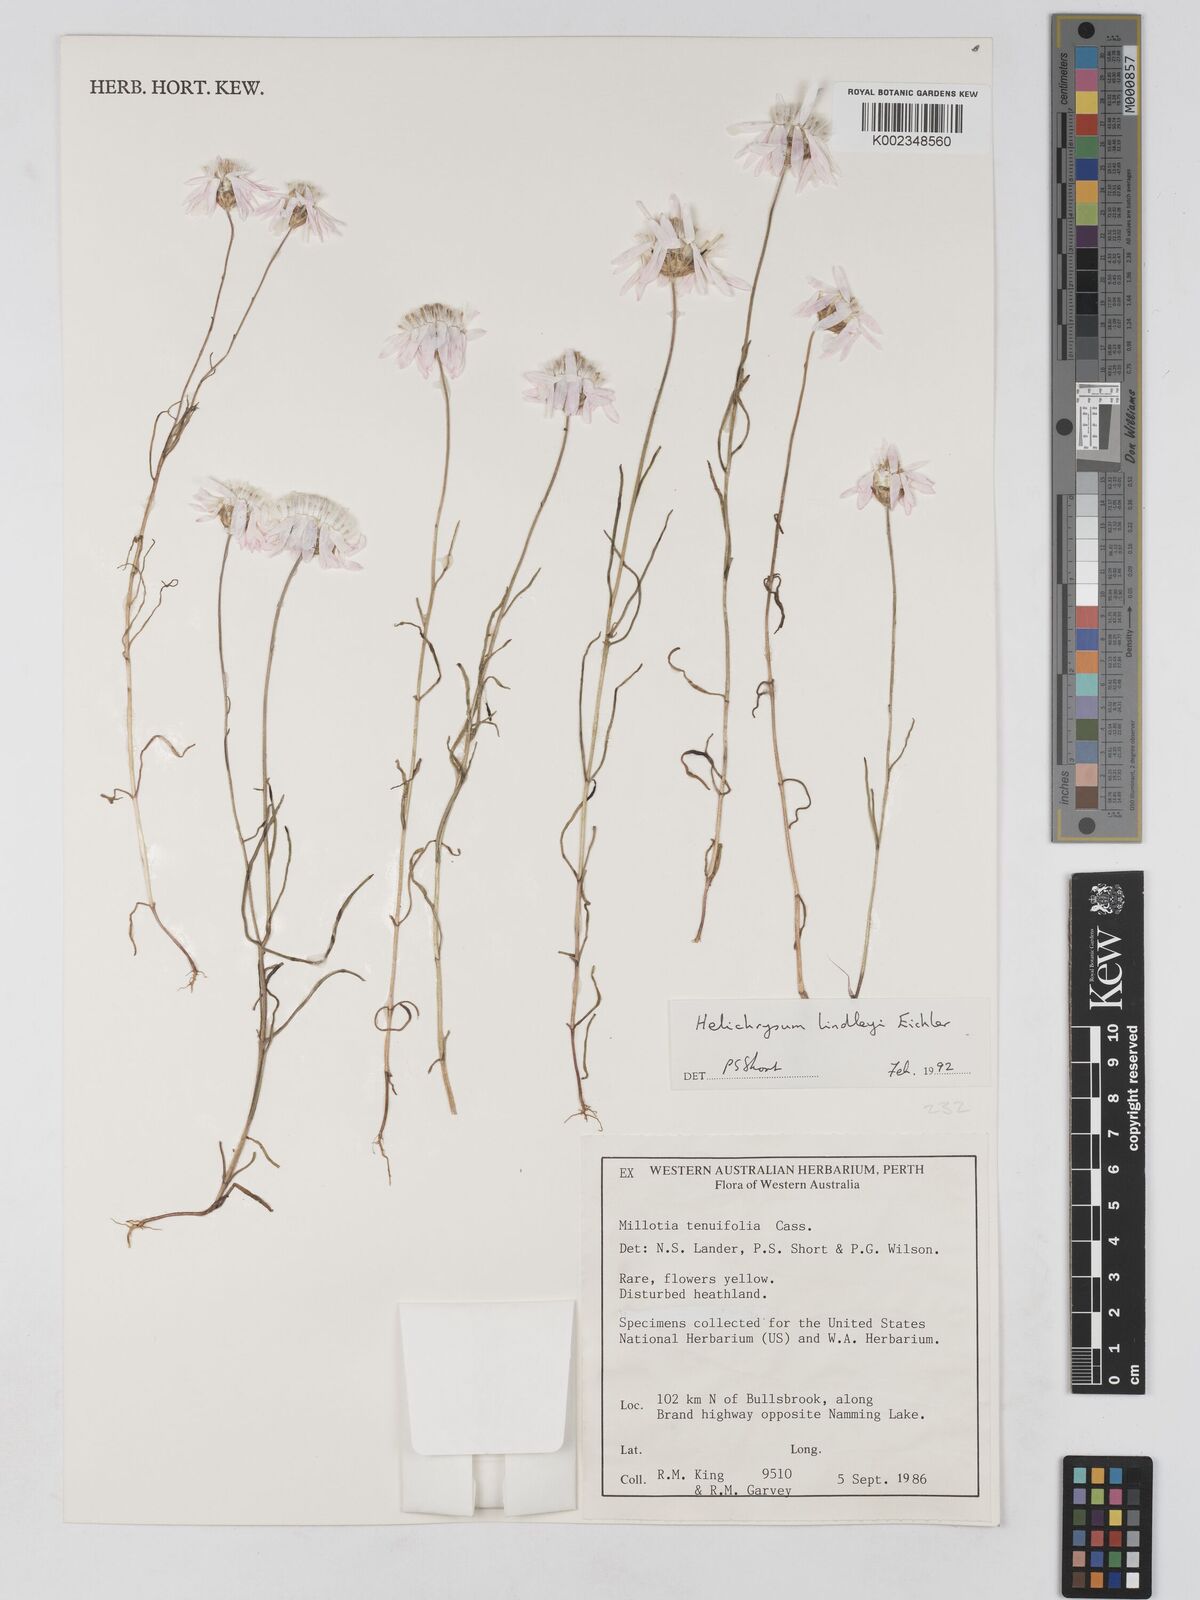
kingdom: Plantae
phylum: Tracheophyta
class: Magnoliopsida
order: Asterales
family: Asteraceae
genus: Lawrencella
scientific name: Lawrencella rosea
